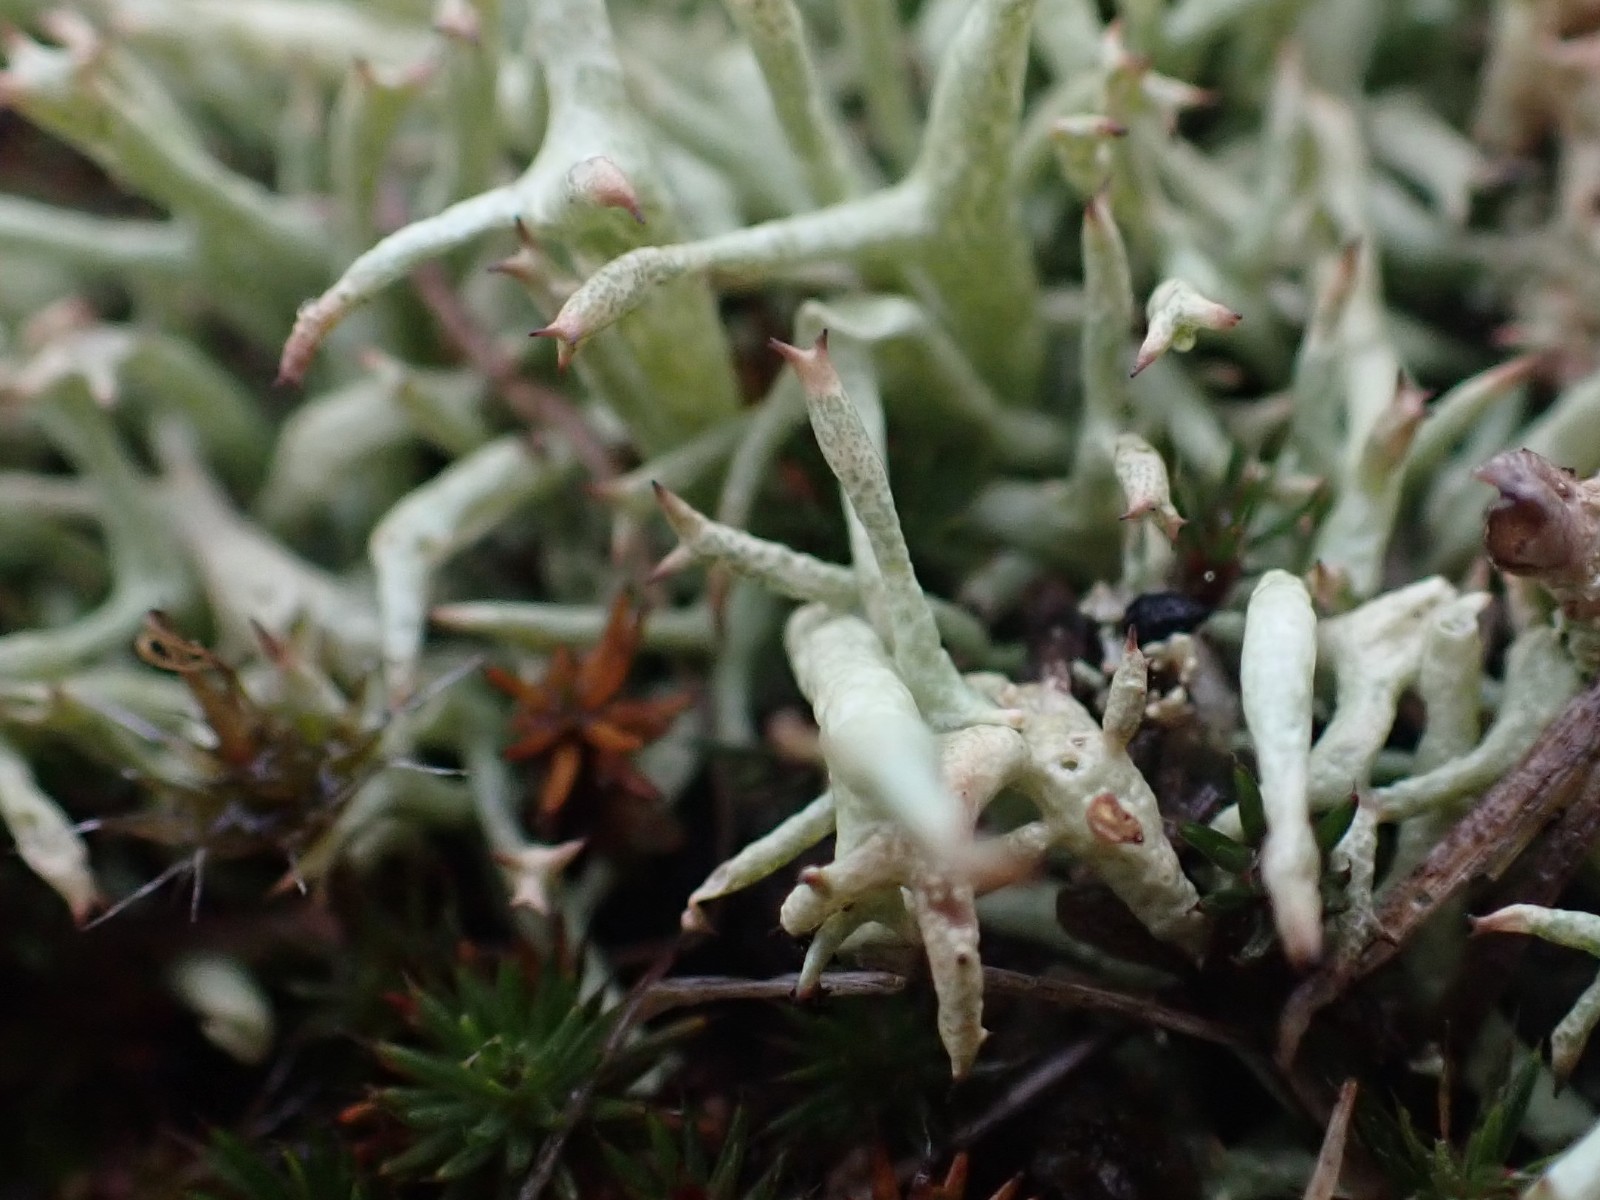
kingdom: Fungi
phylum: Ascomycota
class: Lecanoromycetes
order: Lecanorales
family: Cladoniaceae
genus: Cladonia
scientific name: Cladonia uncialis
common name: pigget bægerlav
